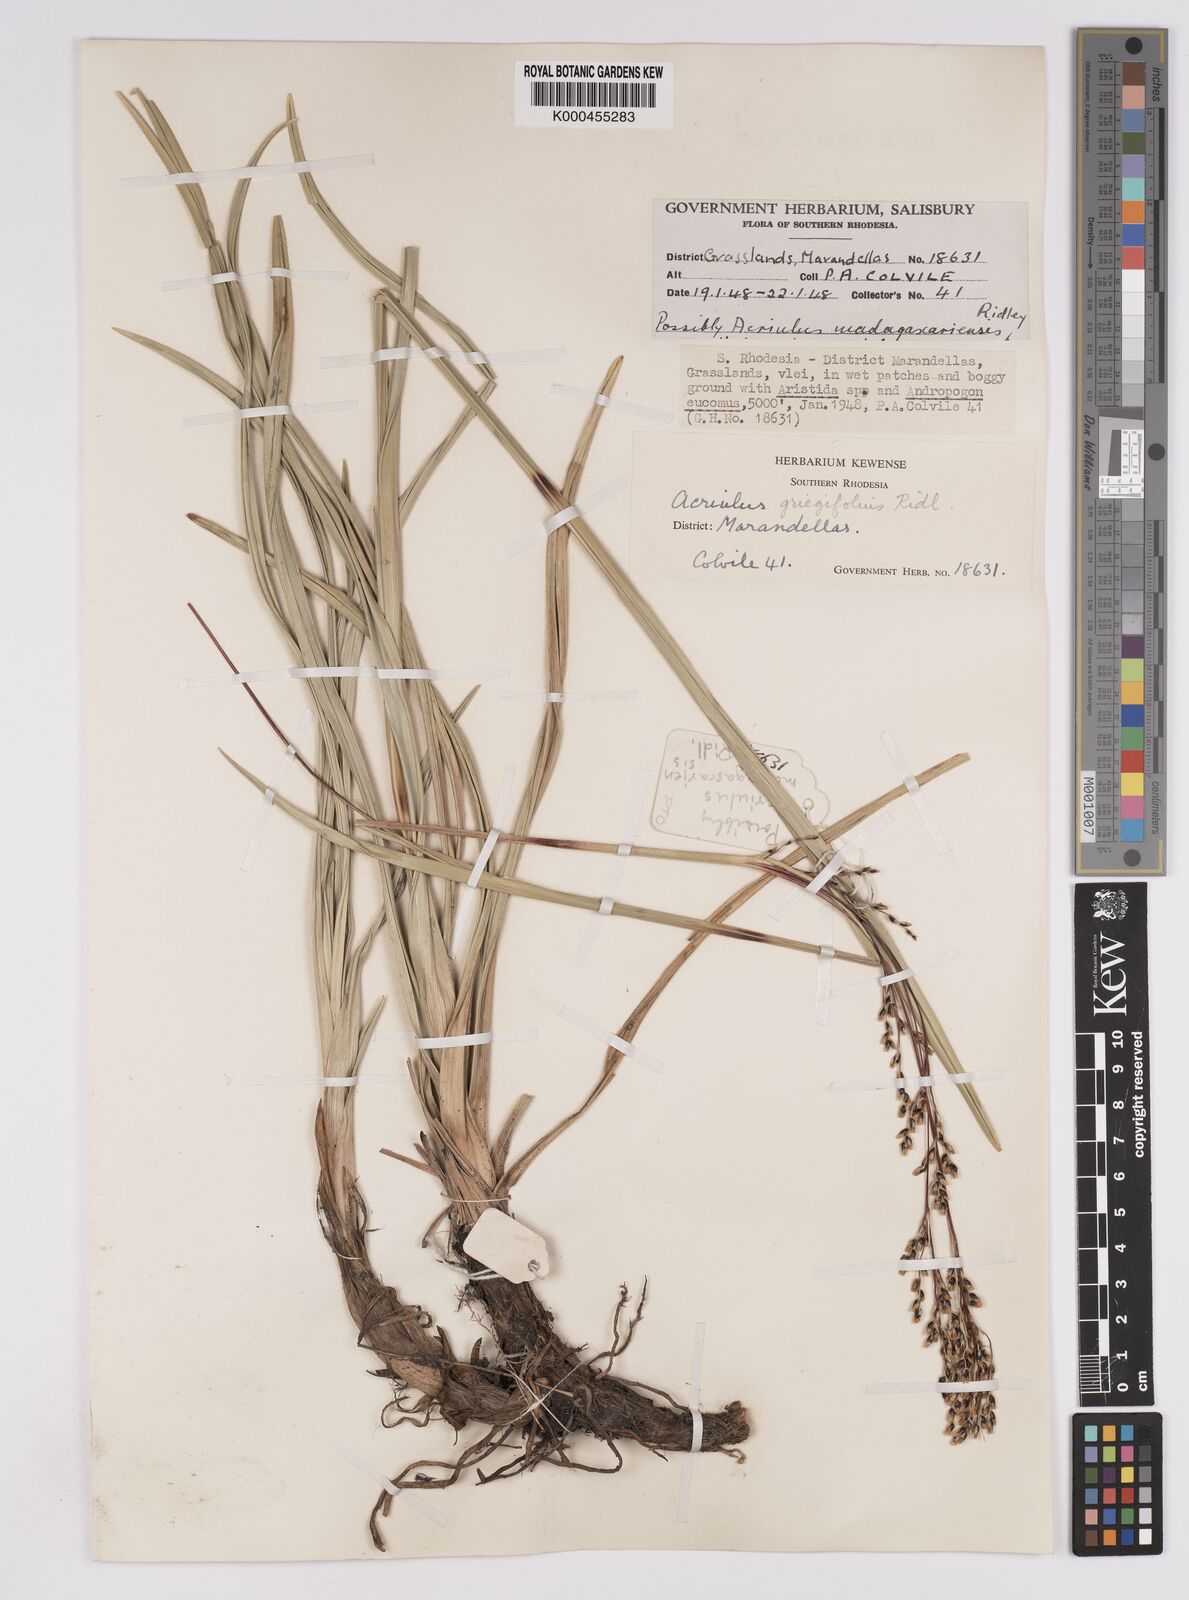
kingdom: Plantae
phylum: Tracheophyta
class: Liliopsida
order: Poales
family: Cyperaceae
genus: Scleria
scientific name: Scleria greigiifolia
